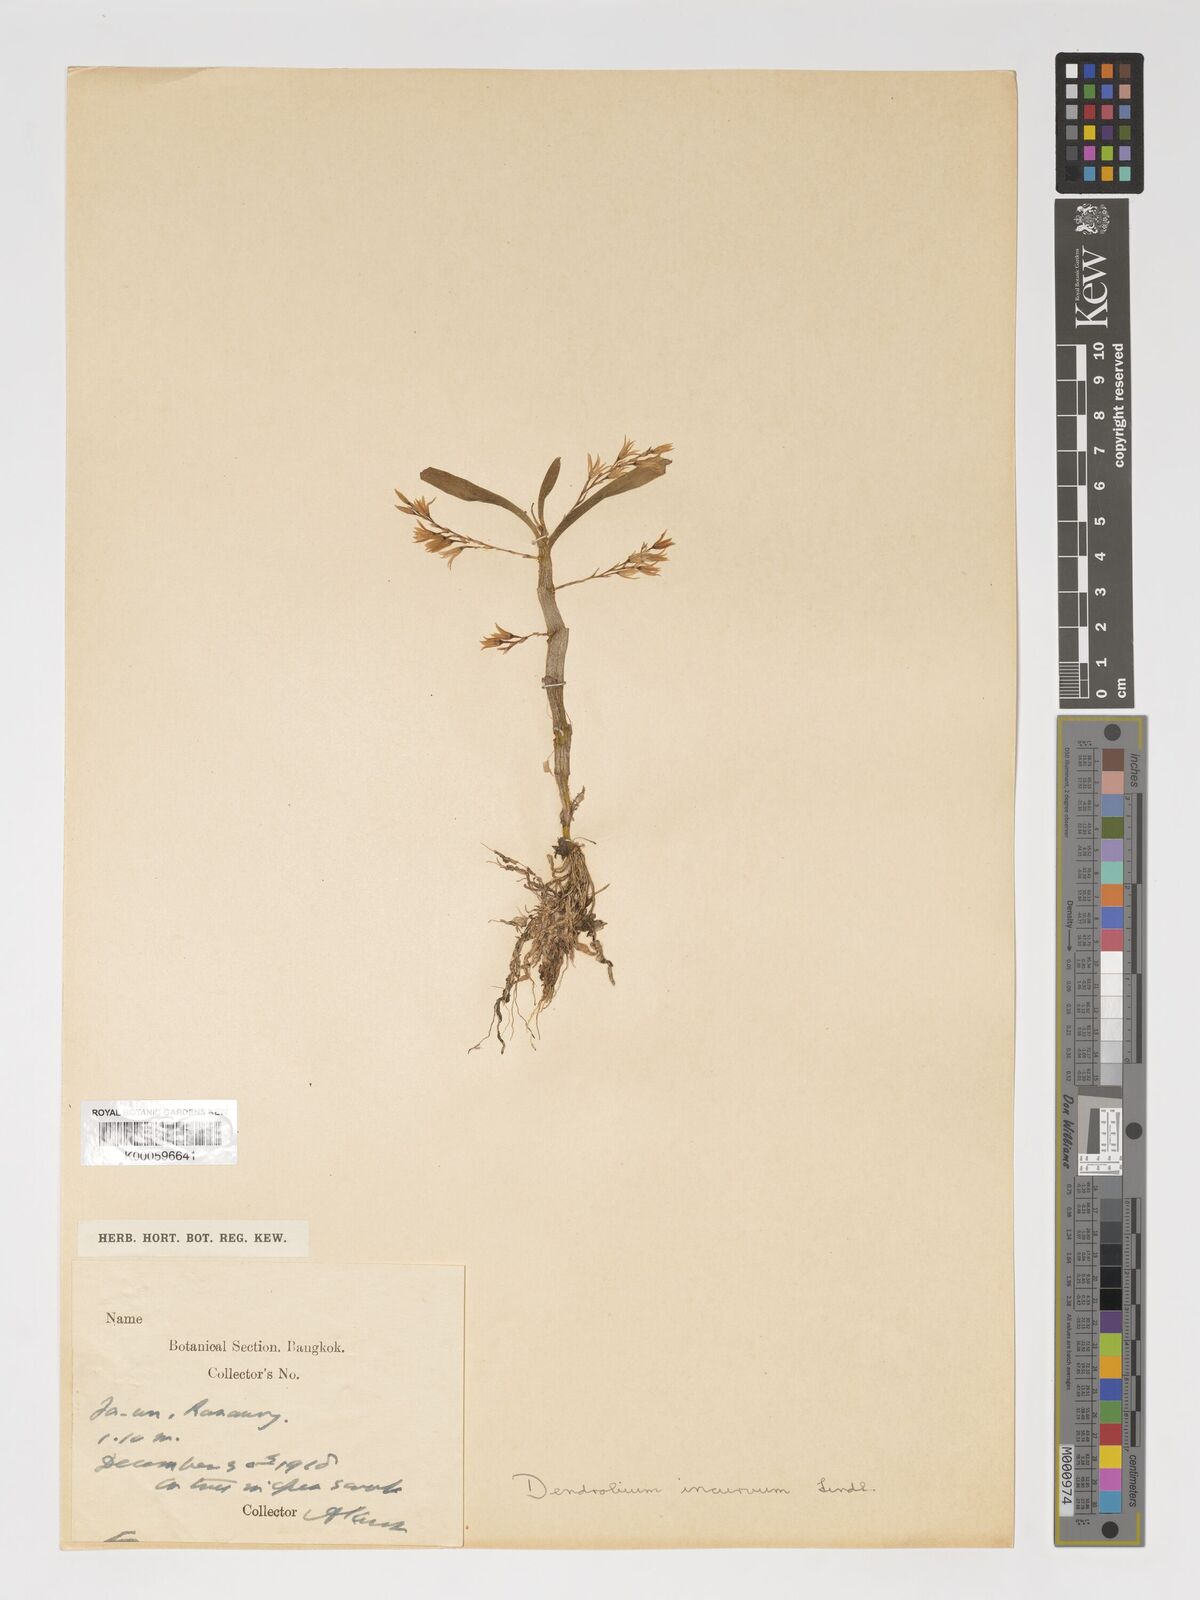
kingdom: Plantae
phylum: Tracheophyta
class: Liliopsida
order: Asparagales
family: Orchidaceae
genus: Dendrobium
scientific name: Dendrobium incurvum
